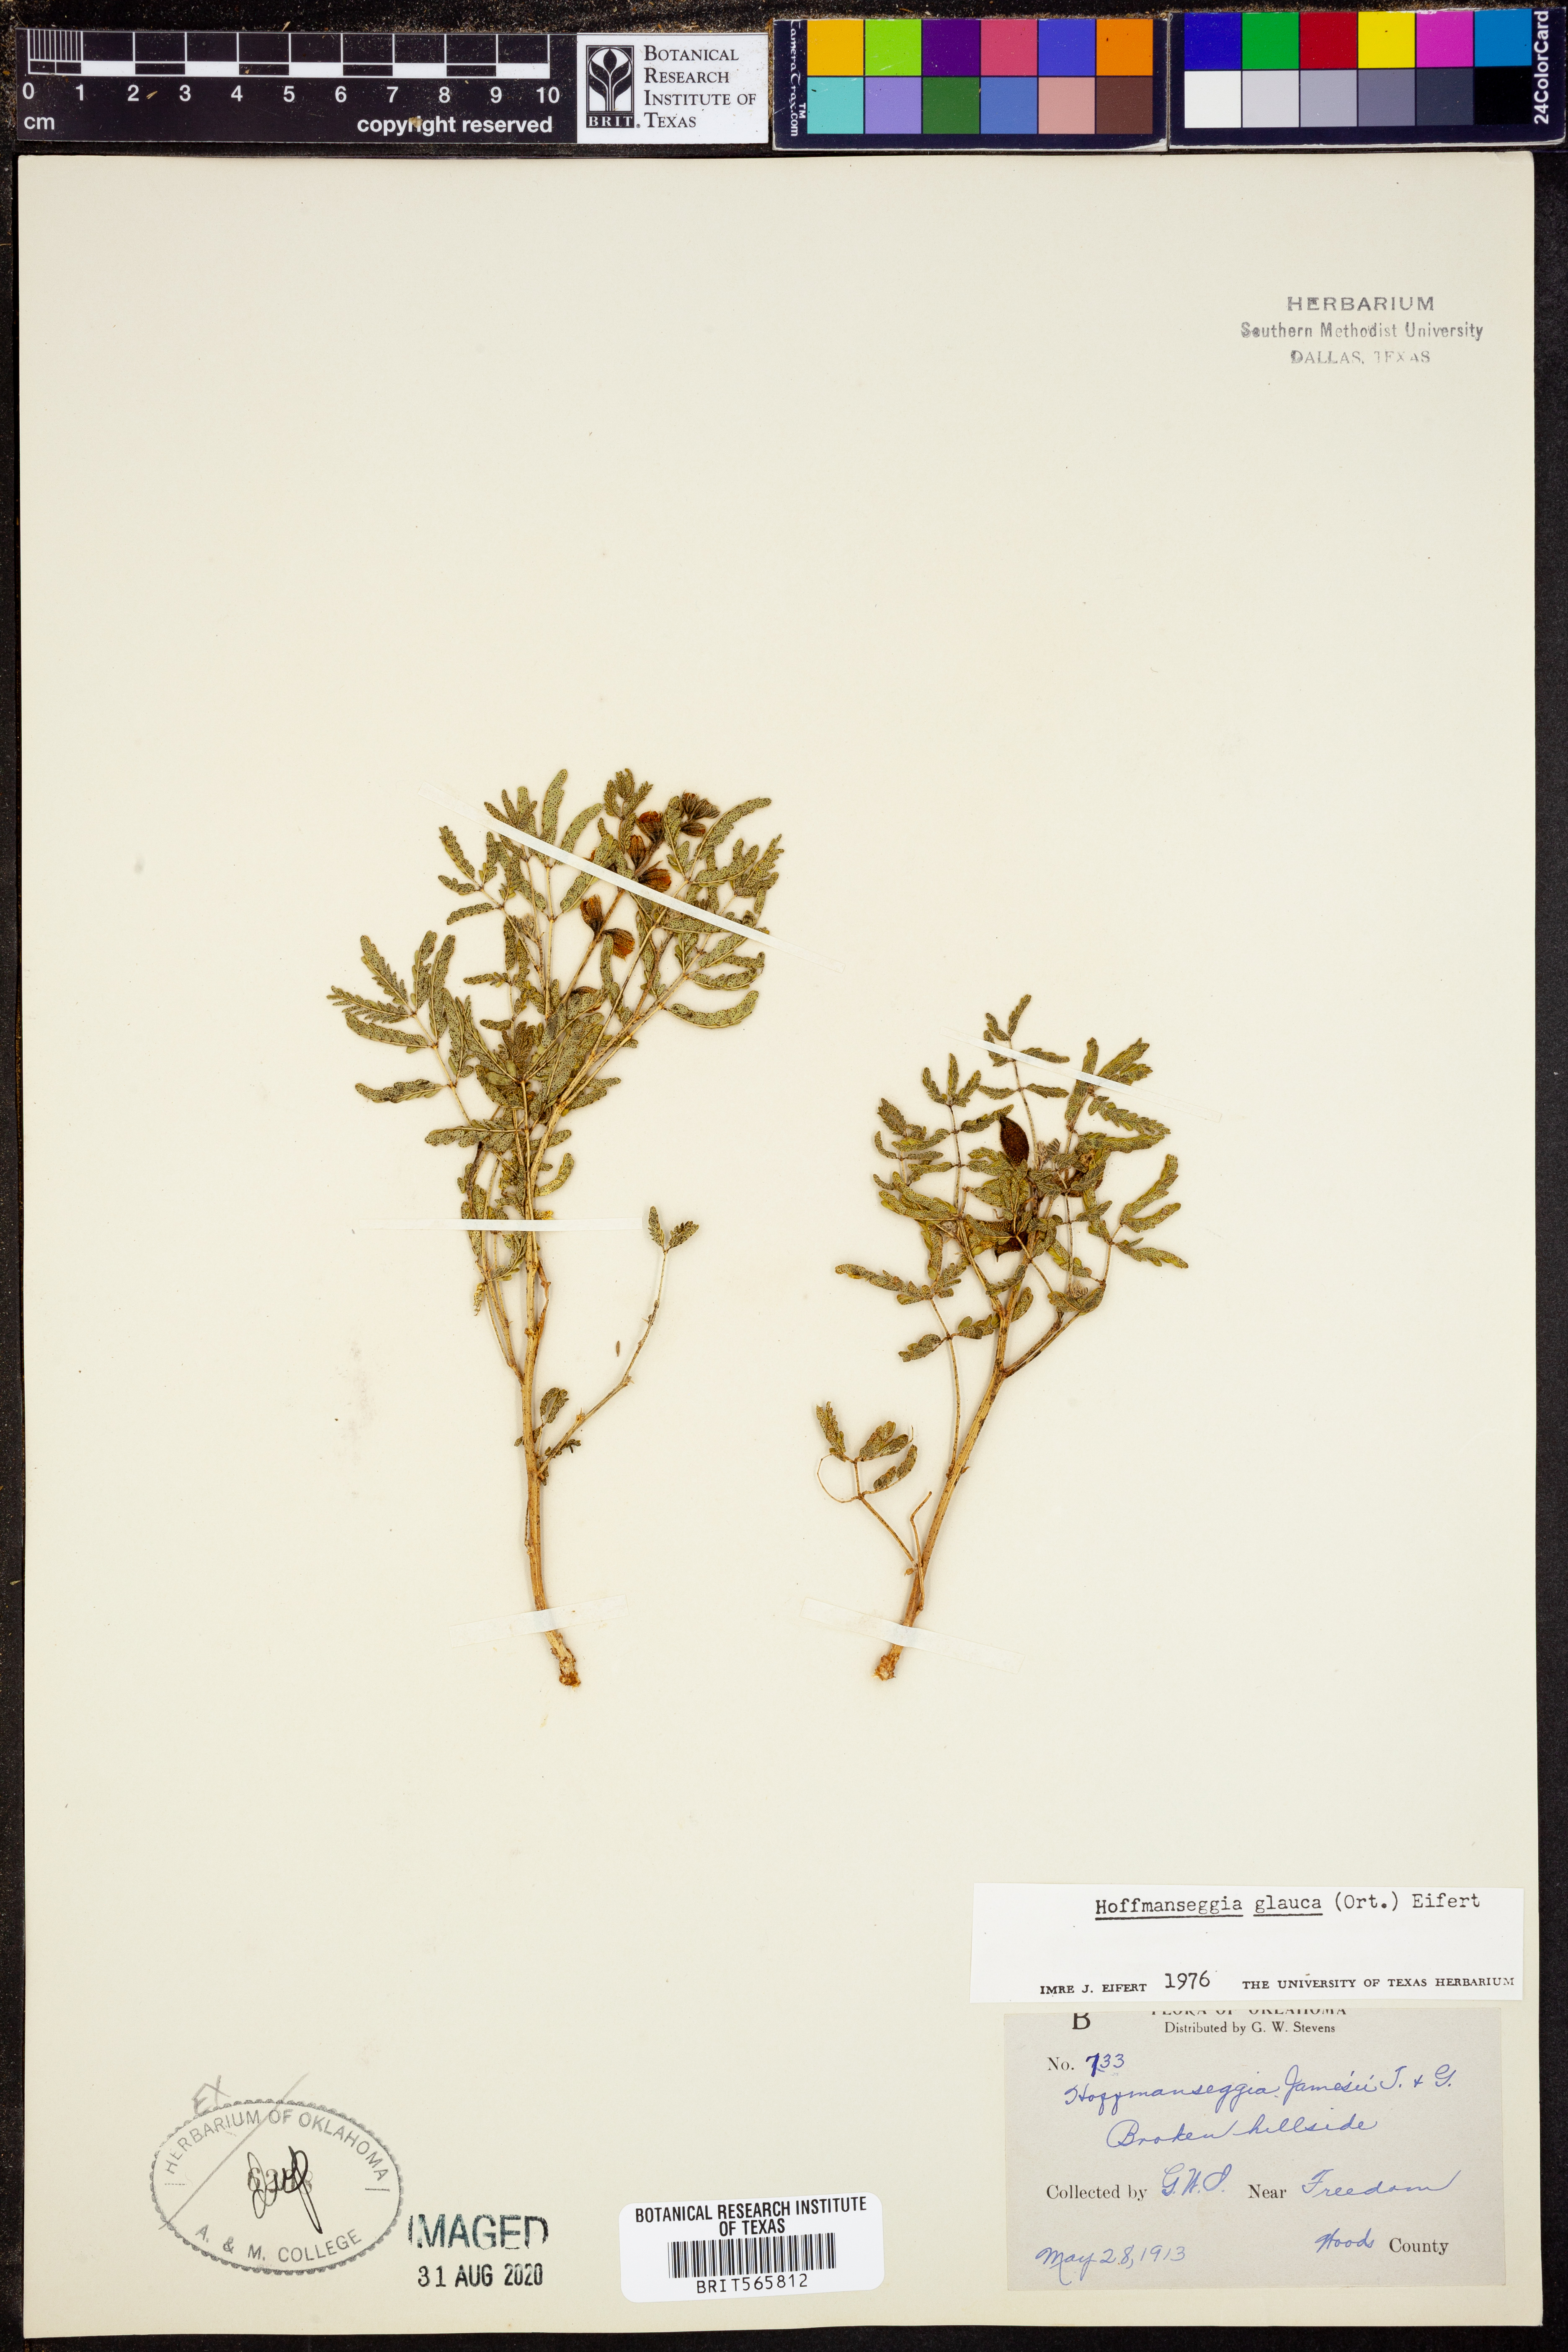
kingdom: Plantae
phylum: Tracheophyta
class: Magnoliopsida
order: Fabales
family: Fabaceae
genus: Hoffmannseggia
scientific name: Hoffmannseggia glauca
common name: Pignut
